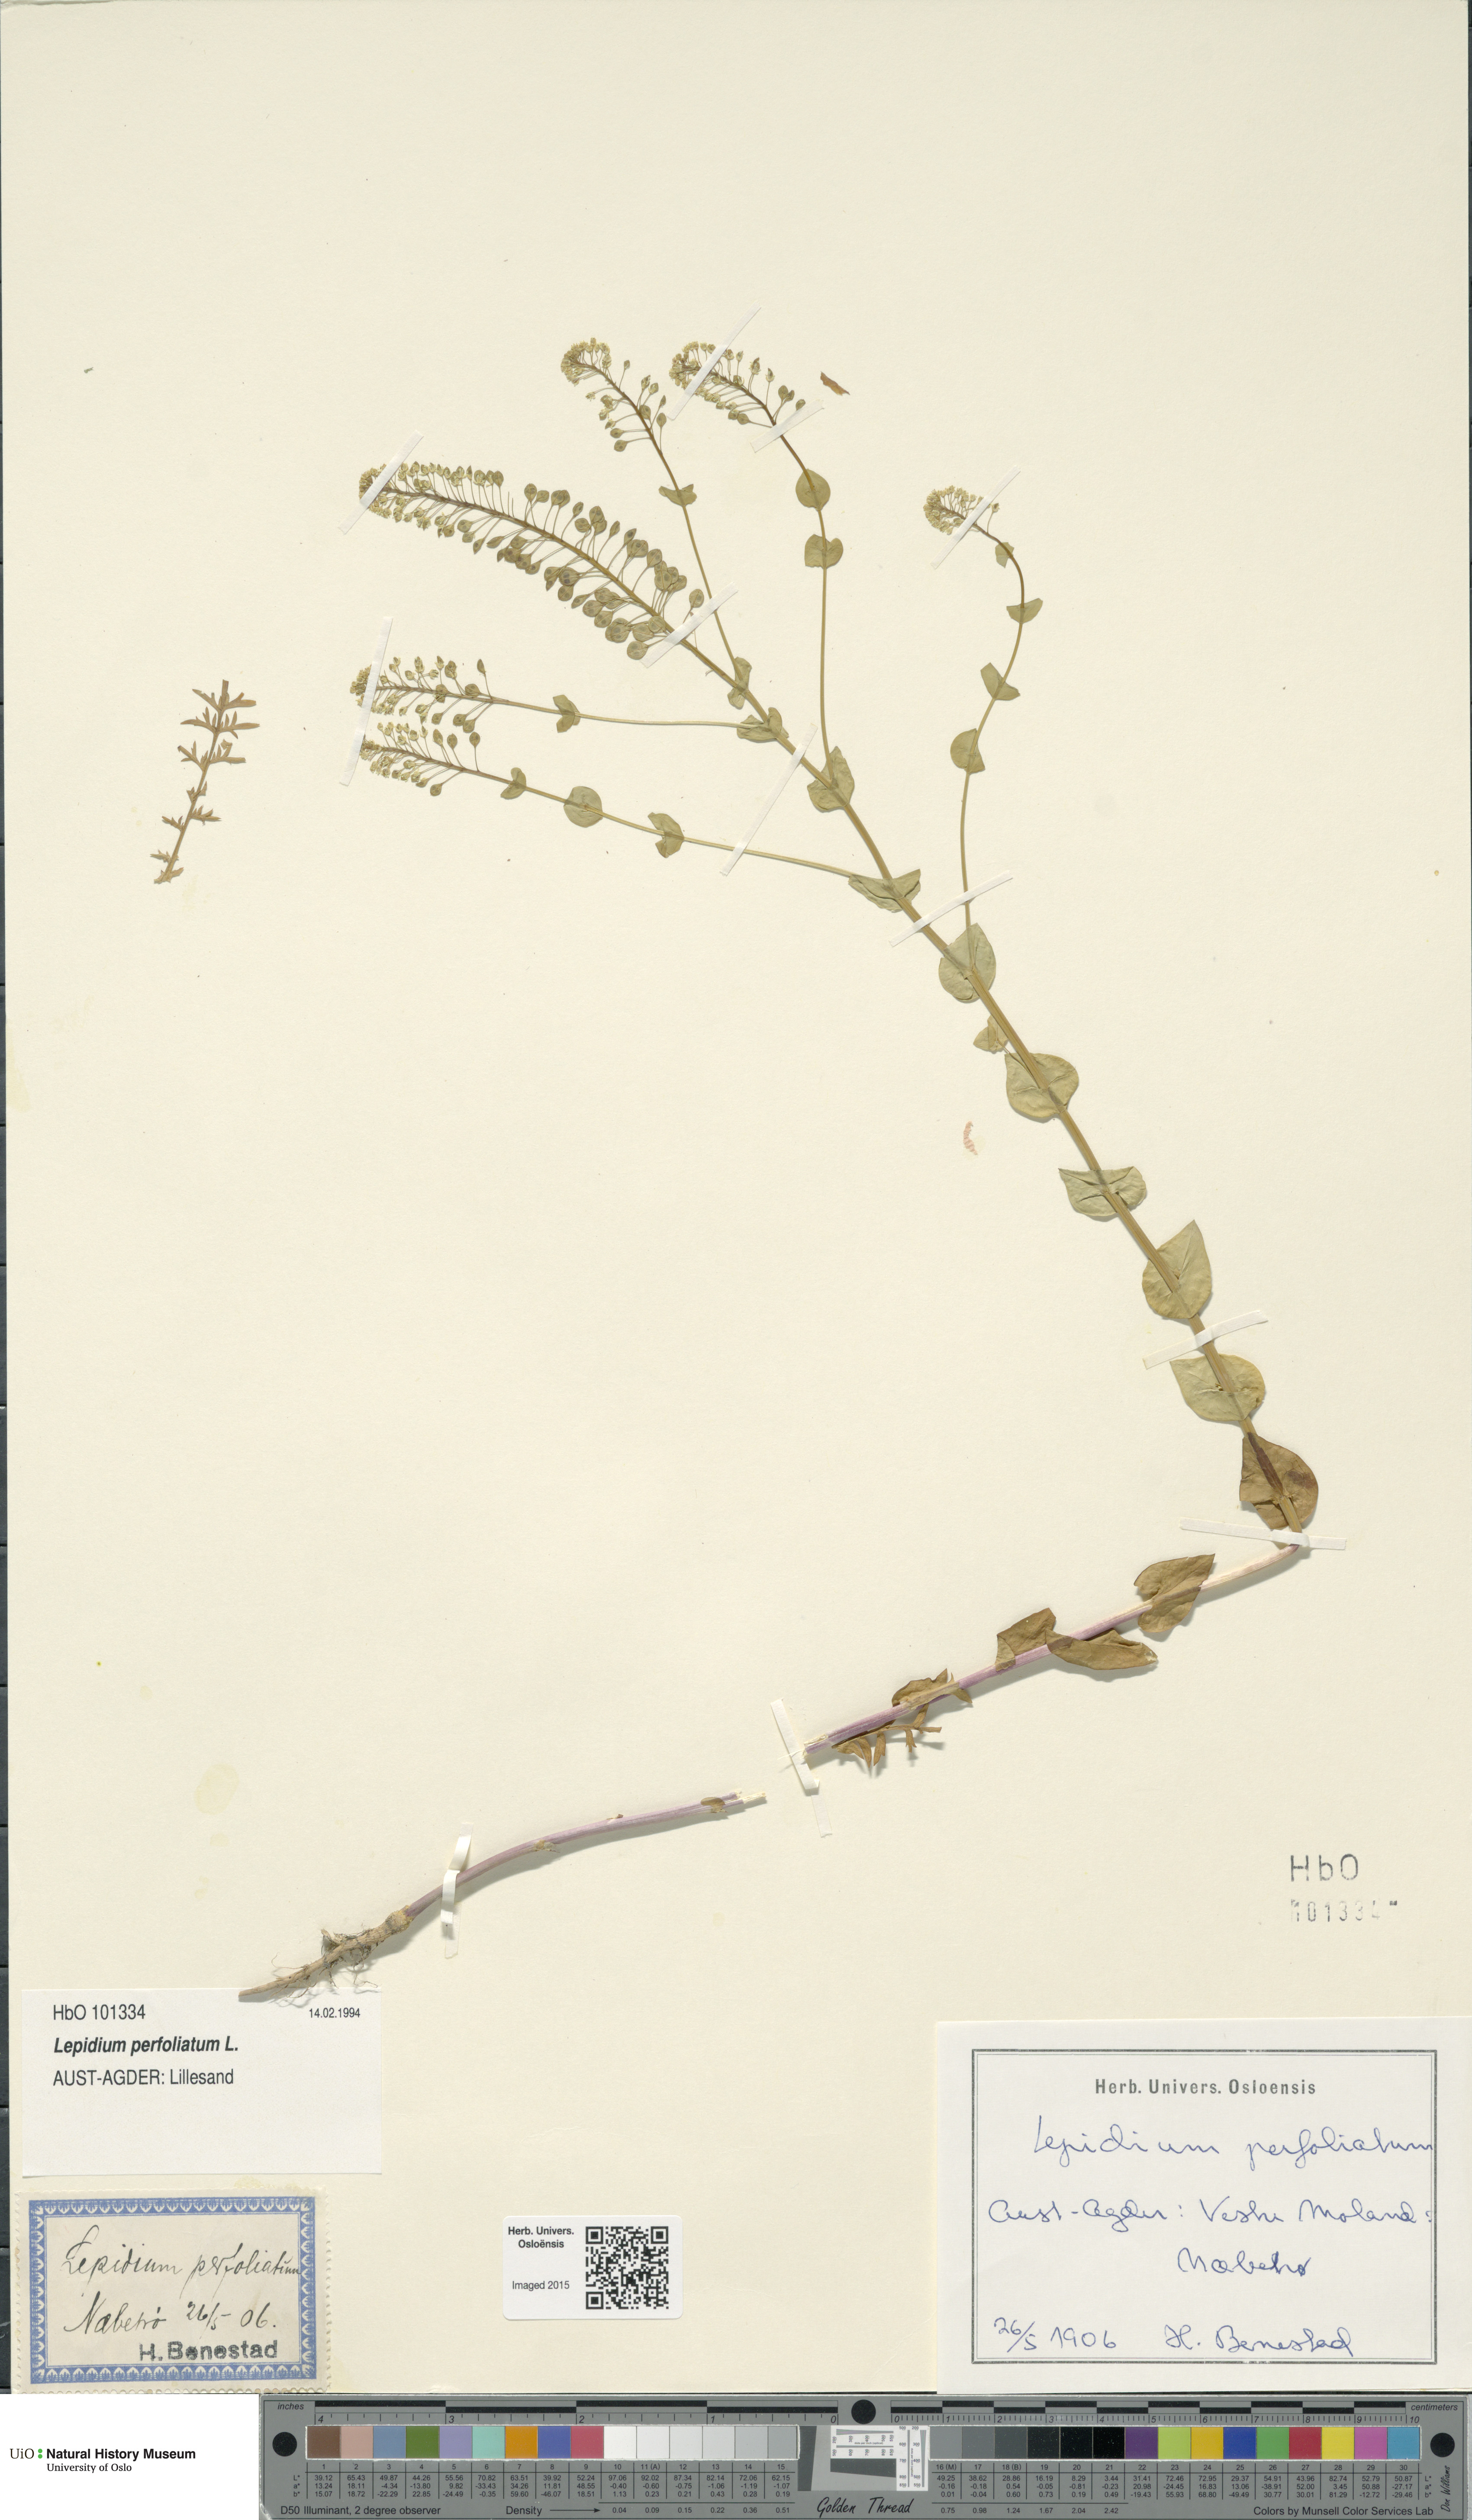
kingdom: Plantae
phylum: Tracheophyta
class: Magnoliopsida
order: Brassicales
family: Brassicaceae
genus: Lepidium
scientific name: Lepidium perfoliatum
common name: Perfoliate pepperwort
